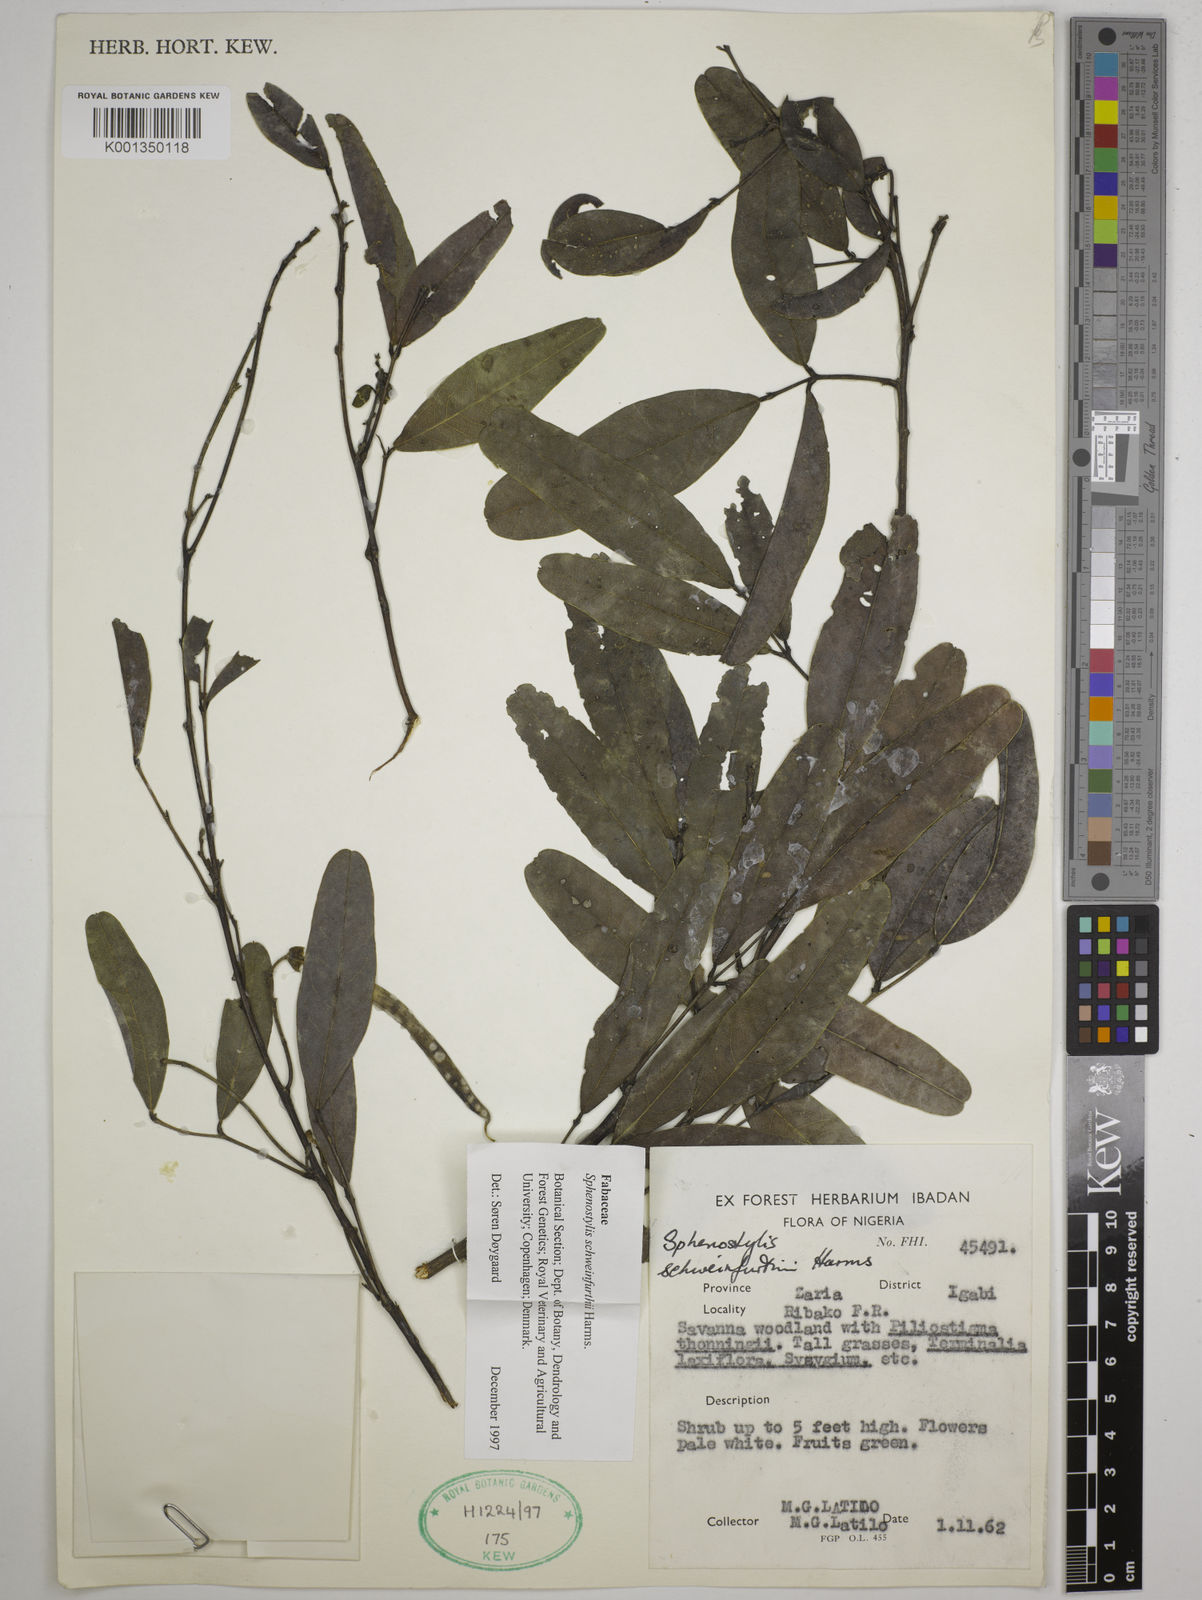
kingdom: Plantae
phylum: Tracheophyta
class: Magnoliopsida
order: Fabales
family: Fabaceae
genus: Sphenostylis
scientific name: Sphenostylis schweinfurthii
